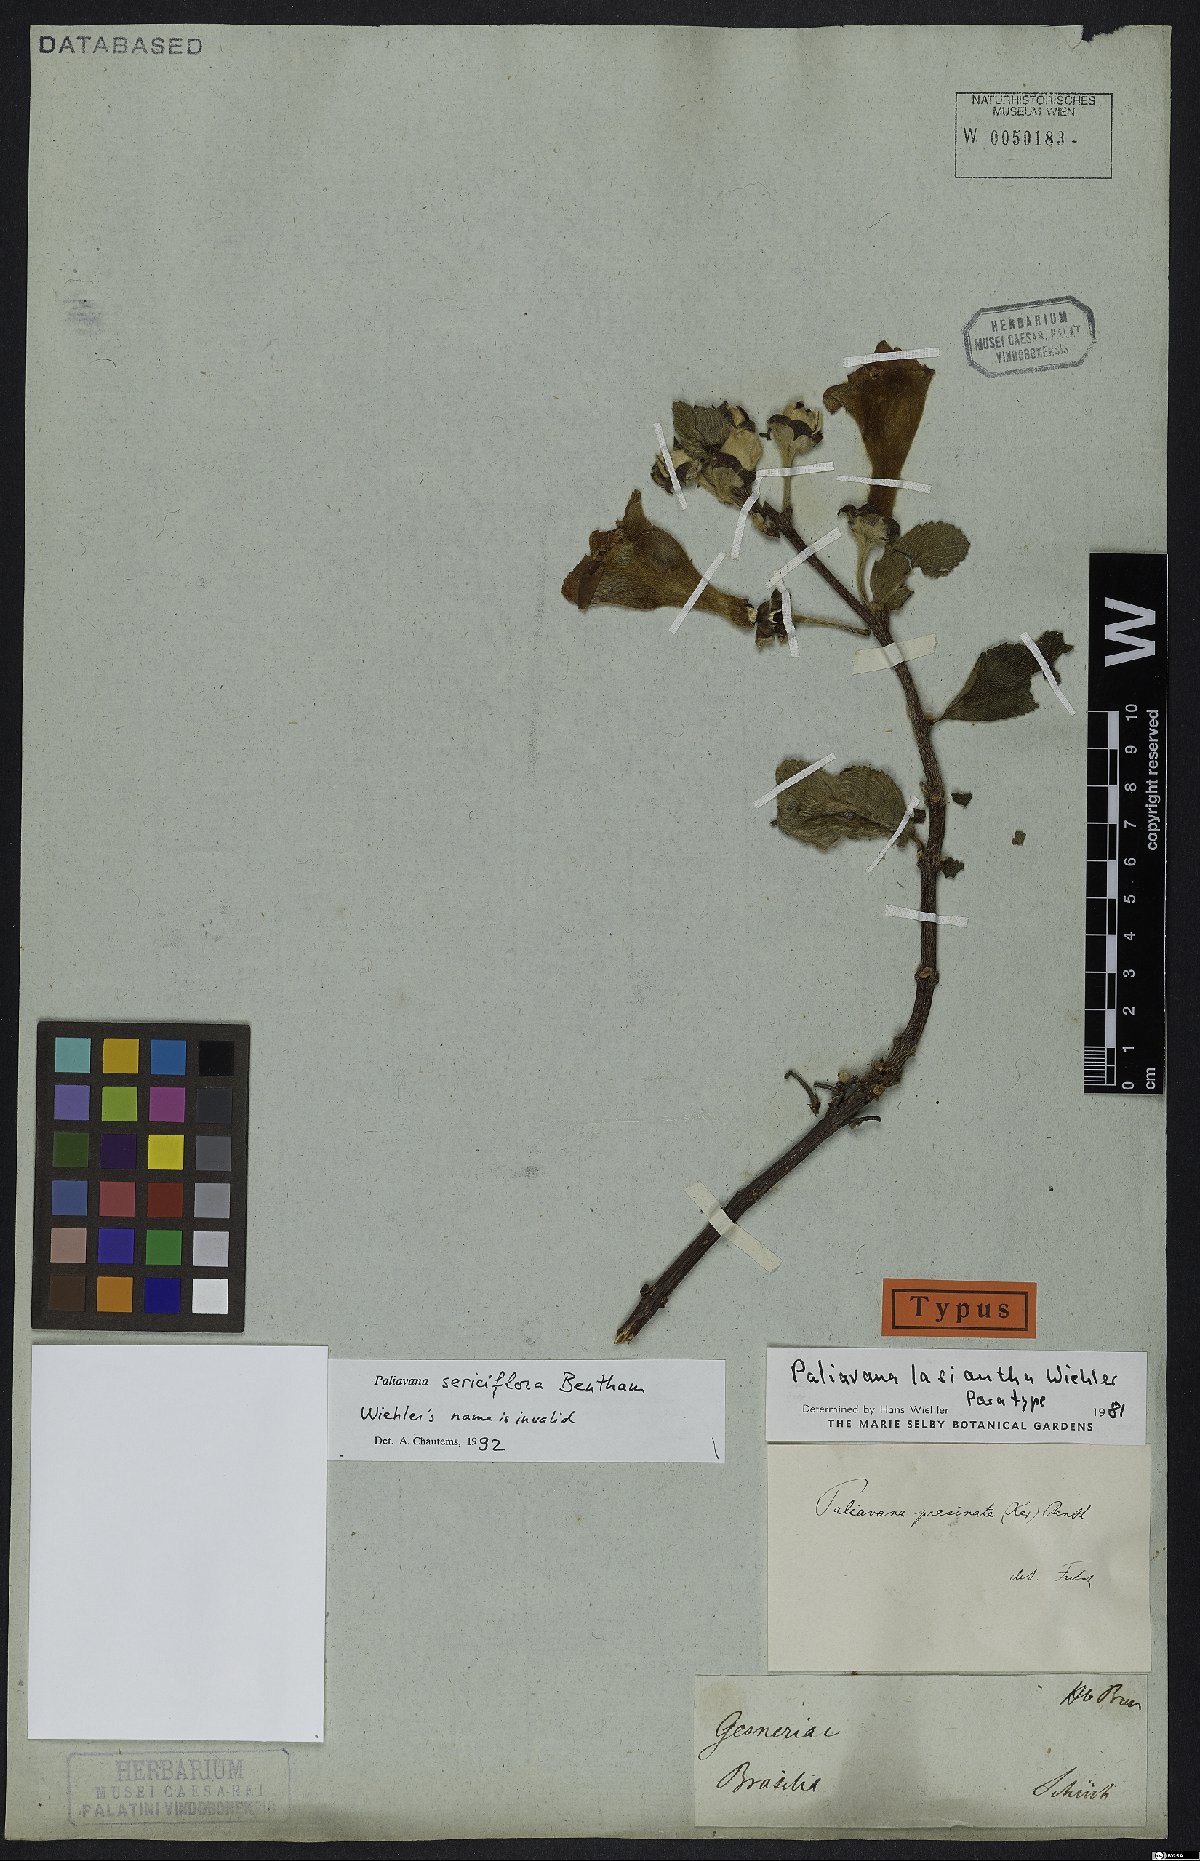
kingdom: Plantae
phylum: Tracheophyta
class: Magnoliopsida
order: Lamiales
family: Gesneriaceae
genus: Paliavana
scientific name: Paliavana sericiflora
